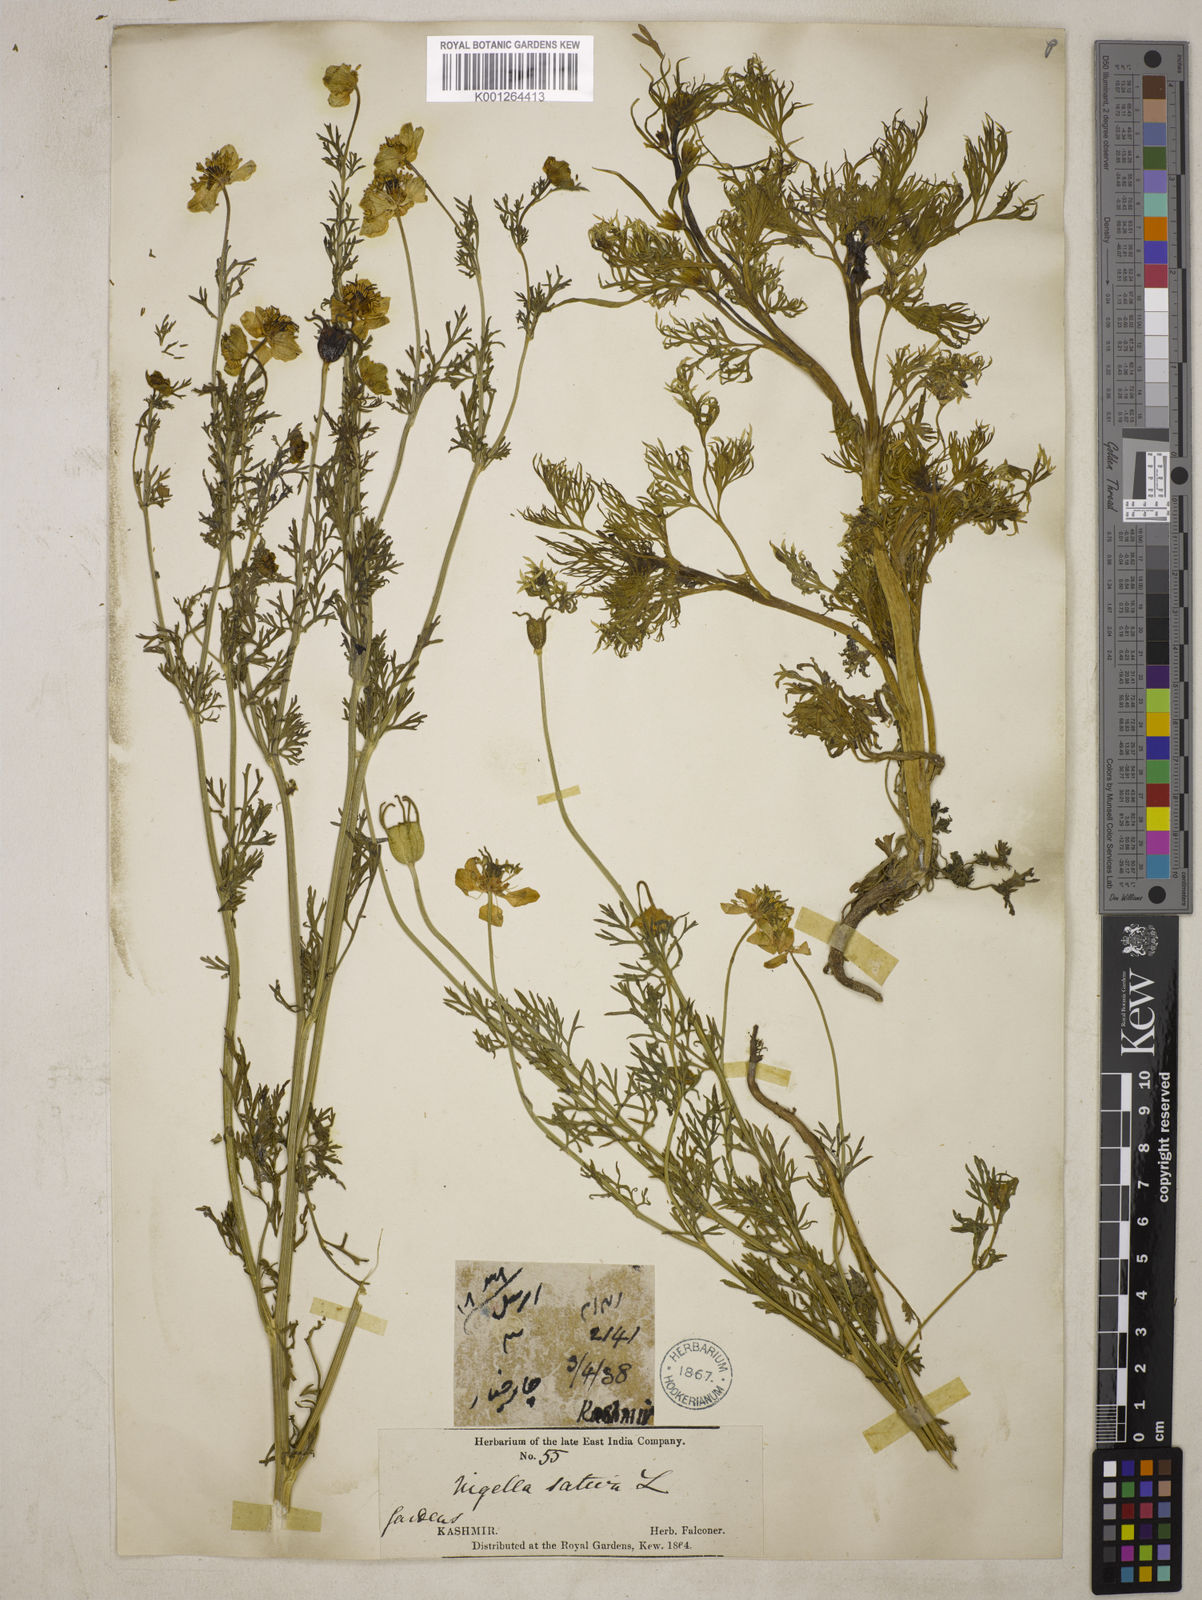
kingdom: Plantae
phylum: Tracheophyta
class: Magnoliopsida
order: Ranunculales
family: Ranunculaceae
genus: Nigella
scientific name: Nigella sativa
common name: Black-cumin
